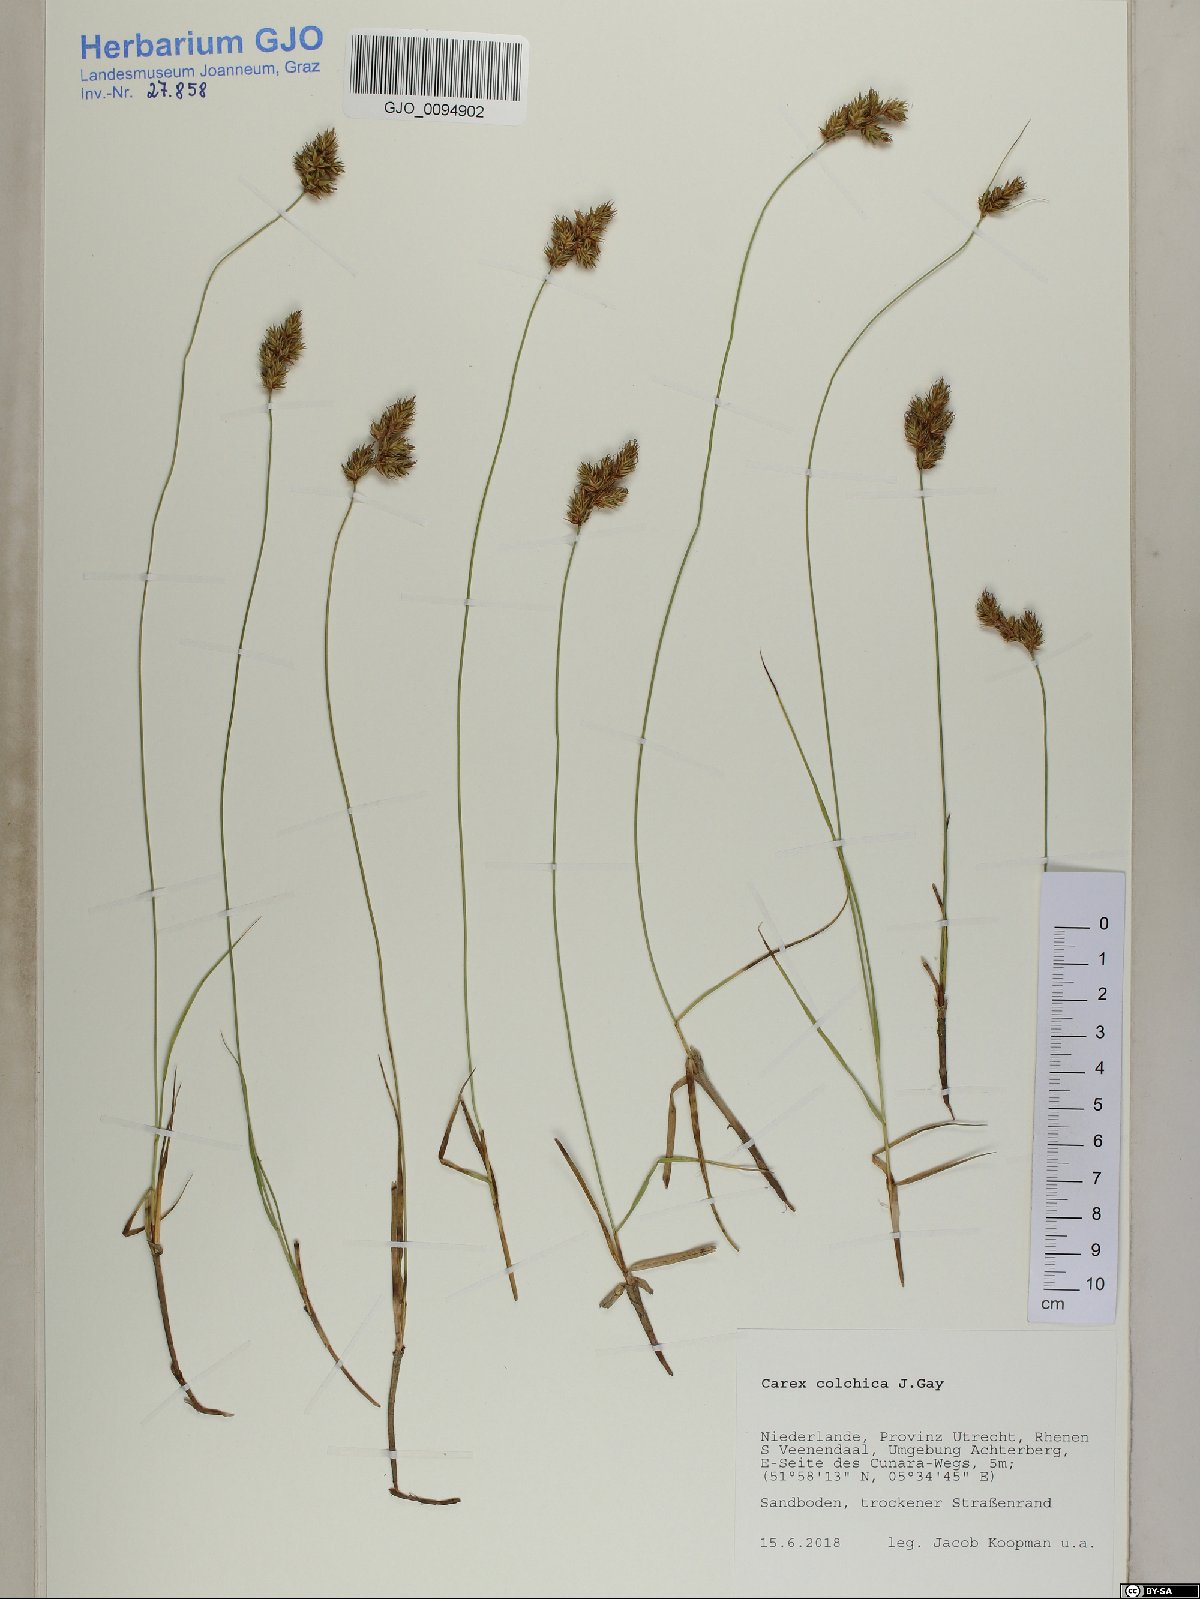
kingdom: Plantae
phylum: Tracheophyta
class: Liliopsida
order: Poales
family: Cyperaceae
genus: Carex
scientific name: Carex colchica
